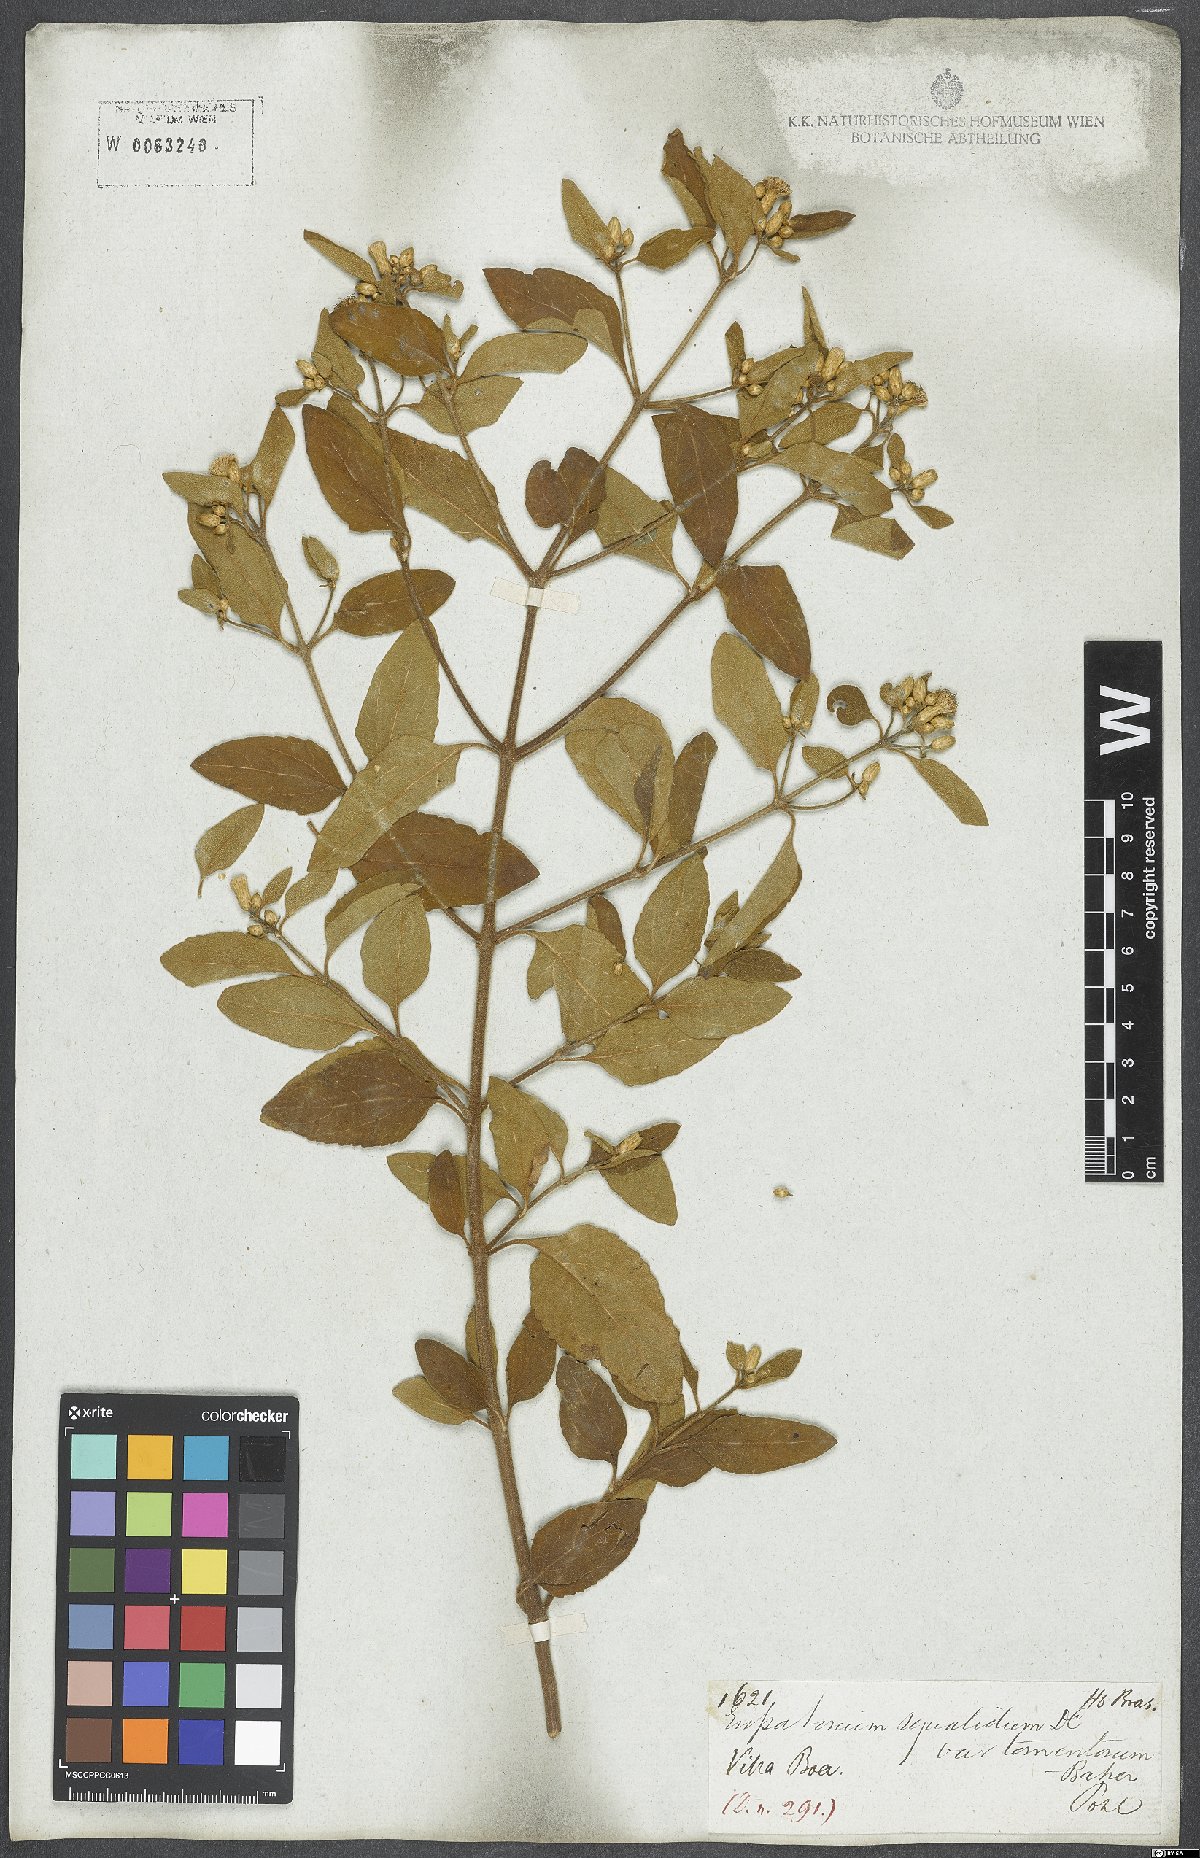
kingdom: Plantae
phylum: Tracheophyta
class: Magnoliopsida
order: Asterales
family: Asteraceae
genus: Chromolaena
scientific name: Chromolaena squalida
